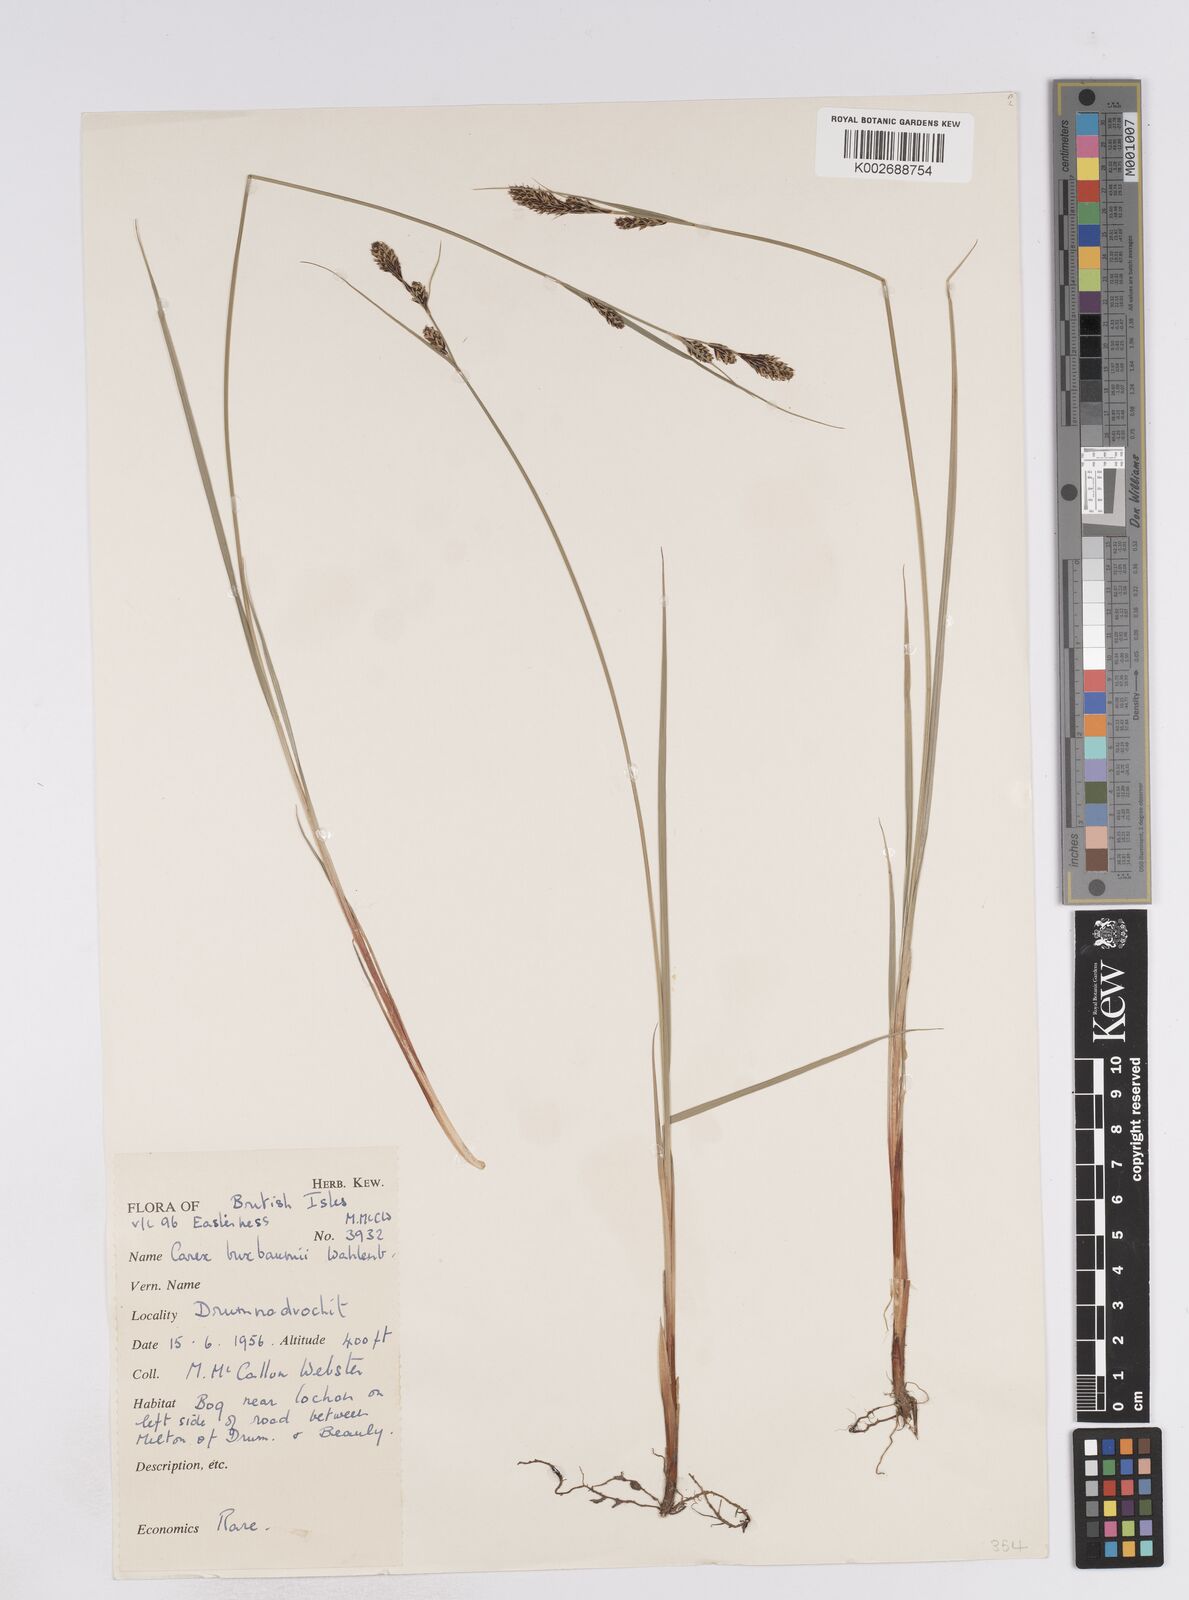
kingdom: Plantae
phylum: Tracheophyta
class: Liliopsida
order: Poales
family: Cyperaceae
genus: Carex
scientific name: Carex buxbaumii
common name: Club sedge
